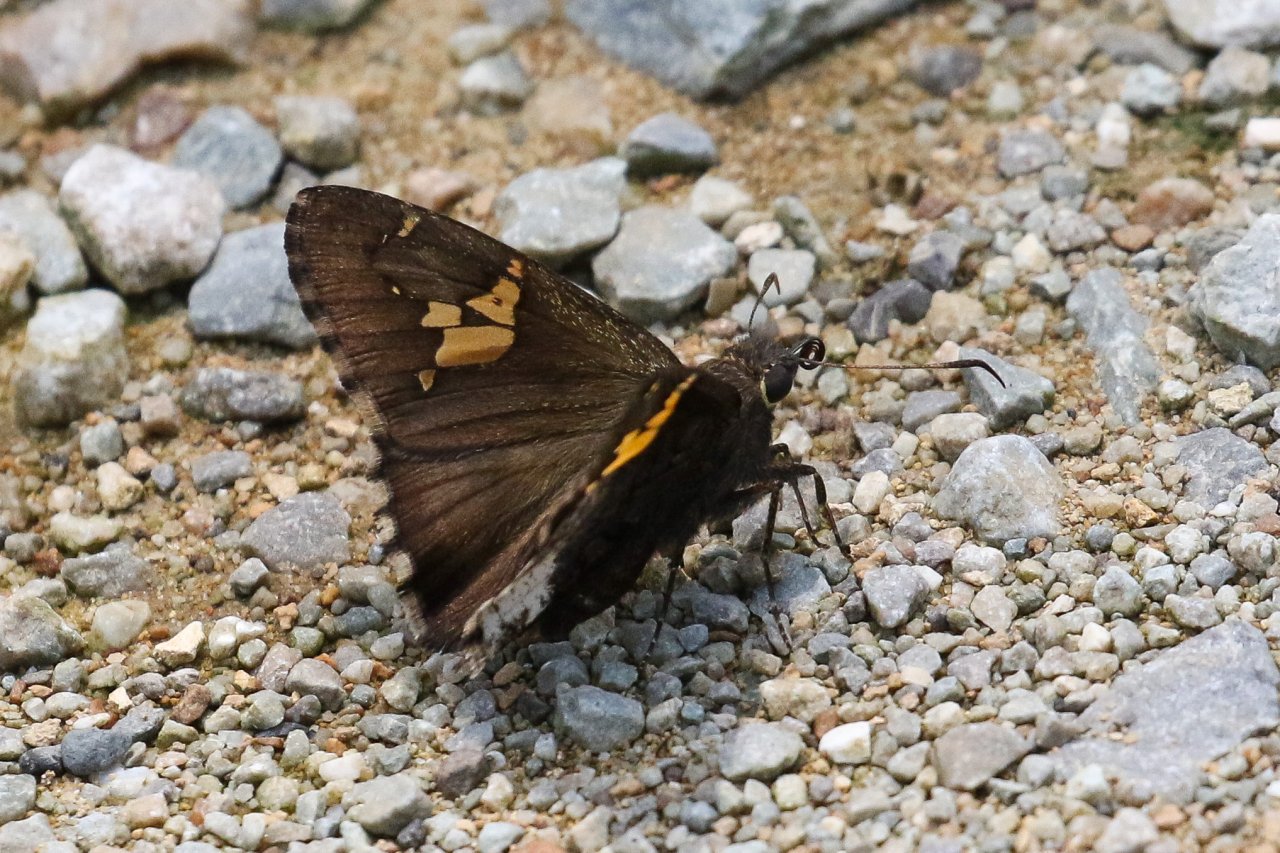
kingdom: Animalia
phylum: Arthropoda
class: Insecta
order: Lepidoptera
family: Hesperiidae
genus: Achalarus
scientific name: Achalarus lyciades
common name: Hoary Edge
